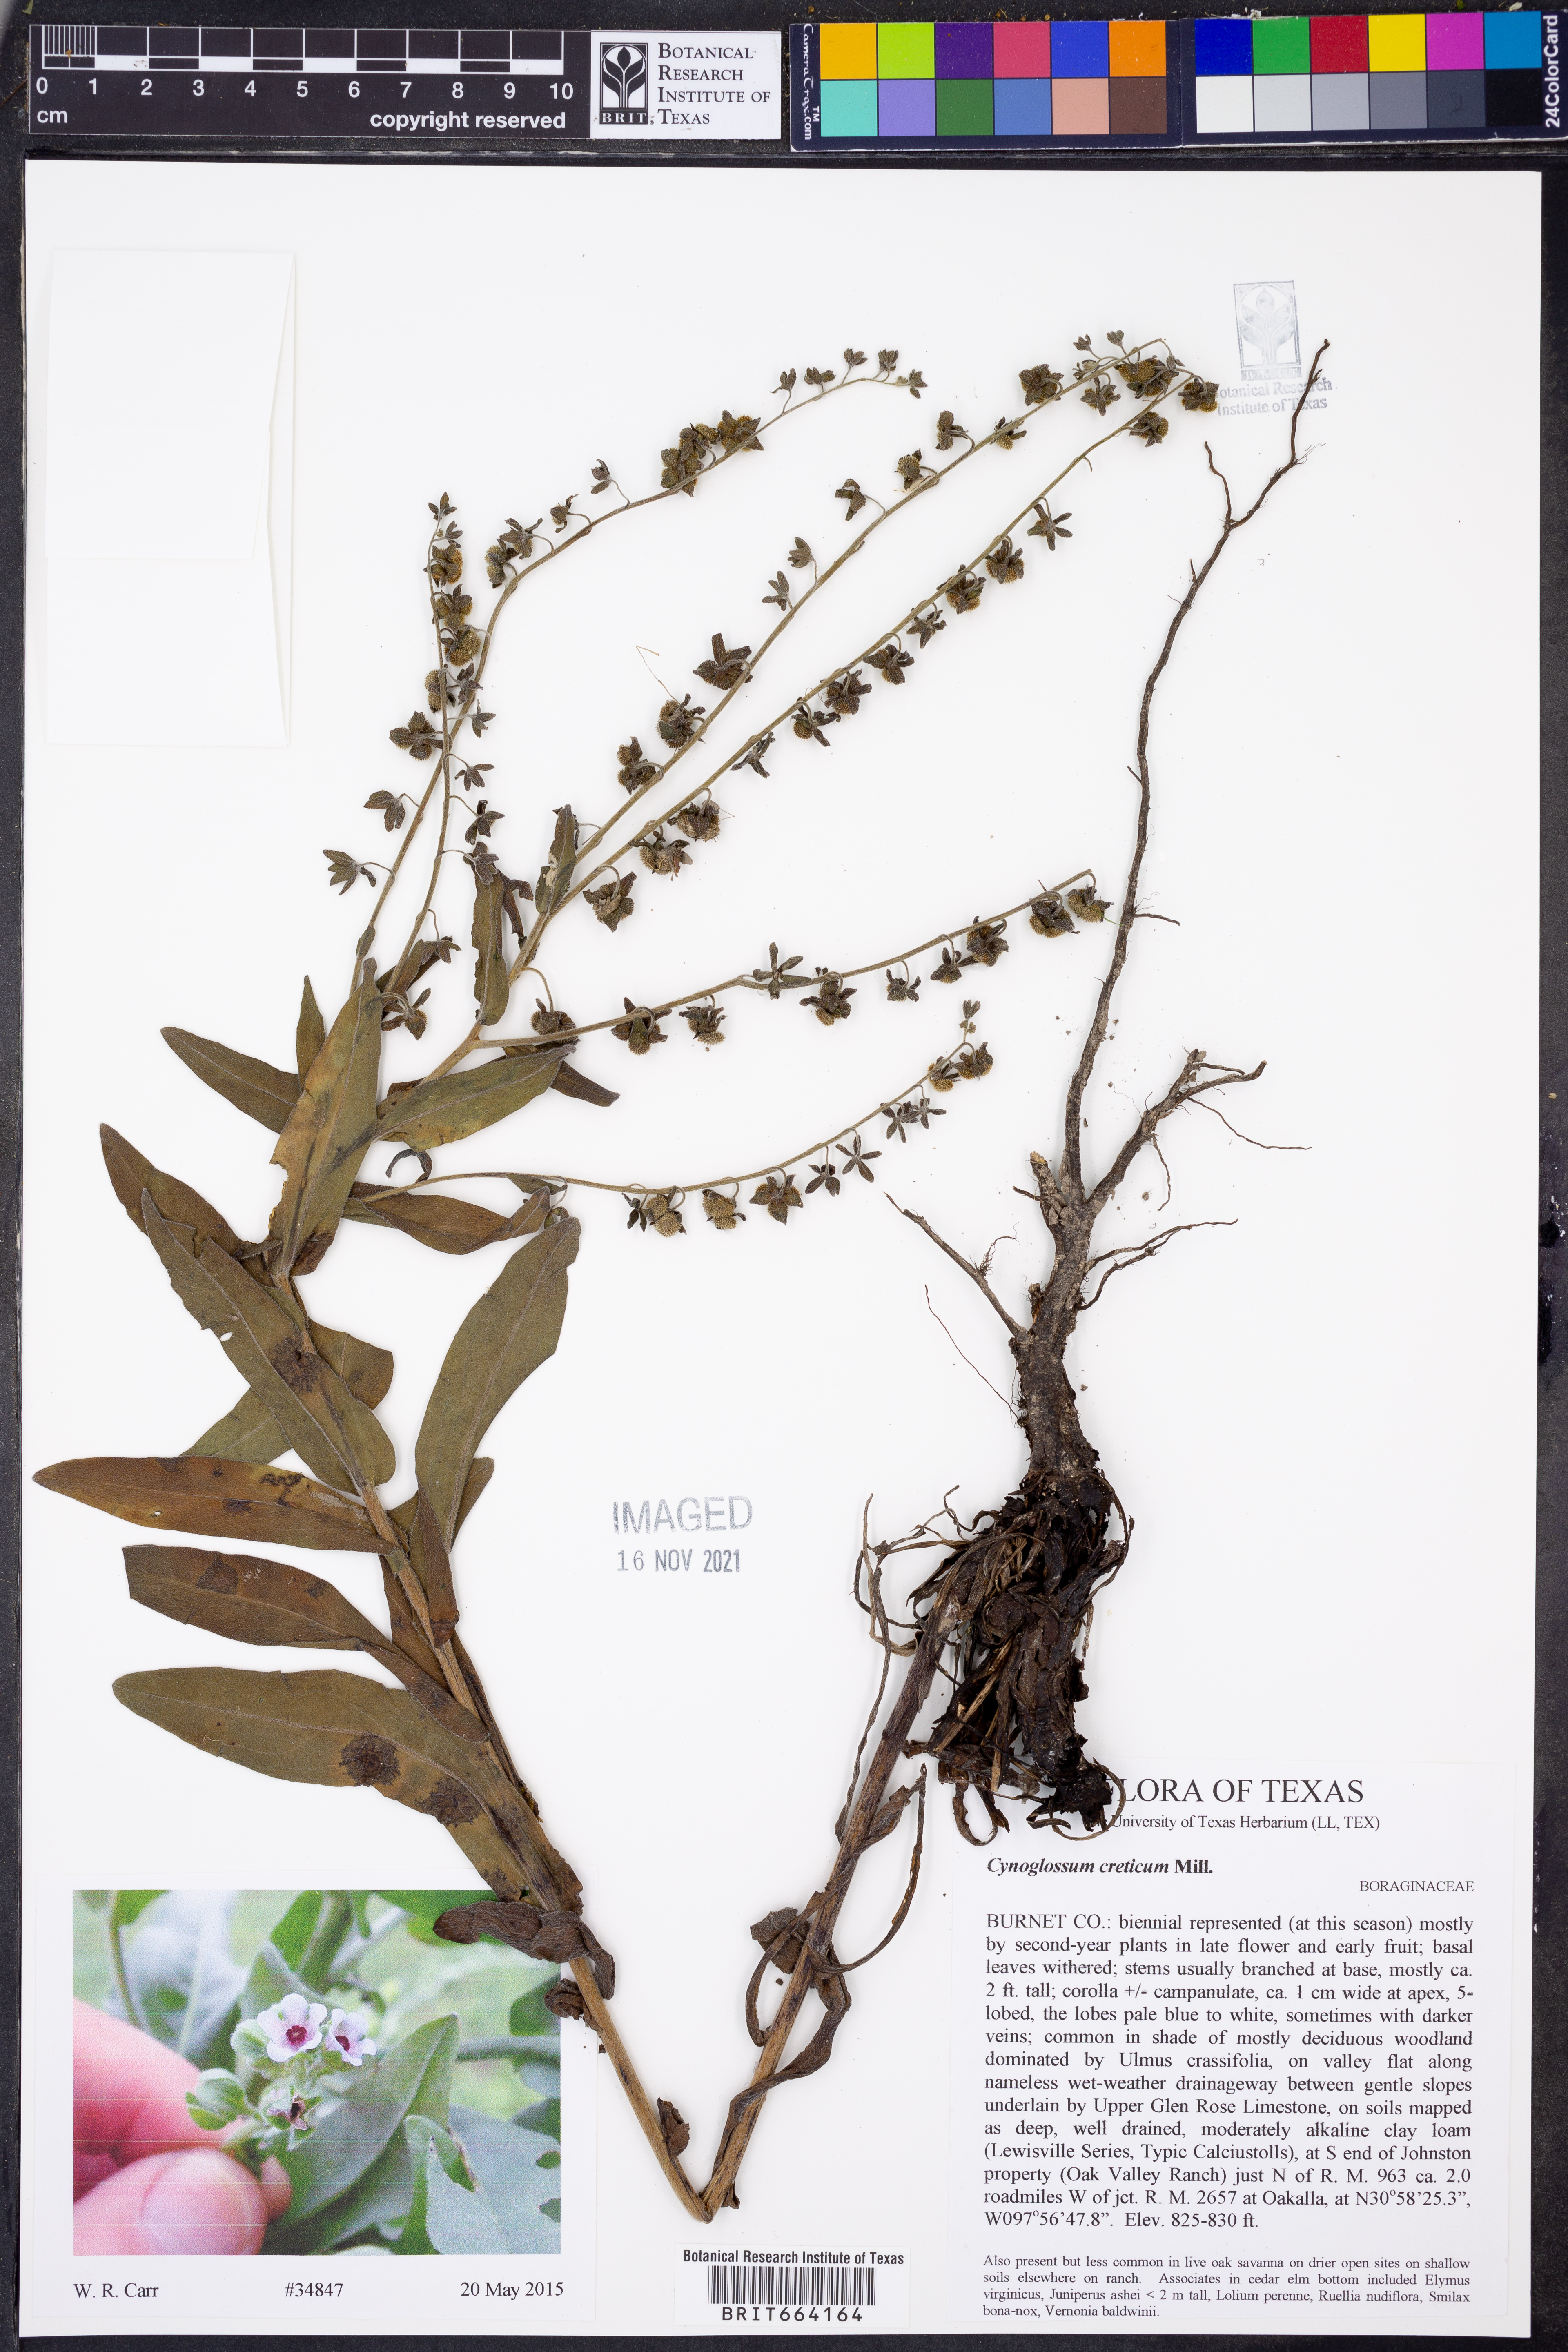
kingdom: Plantae
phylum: Tracheophyta
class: Magnoliopsida
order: Boraginales
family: Boraginaceae
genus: Cynoglossum
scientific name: Cynoglossum creticum
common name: Blue hound's tongue
